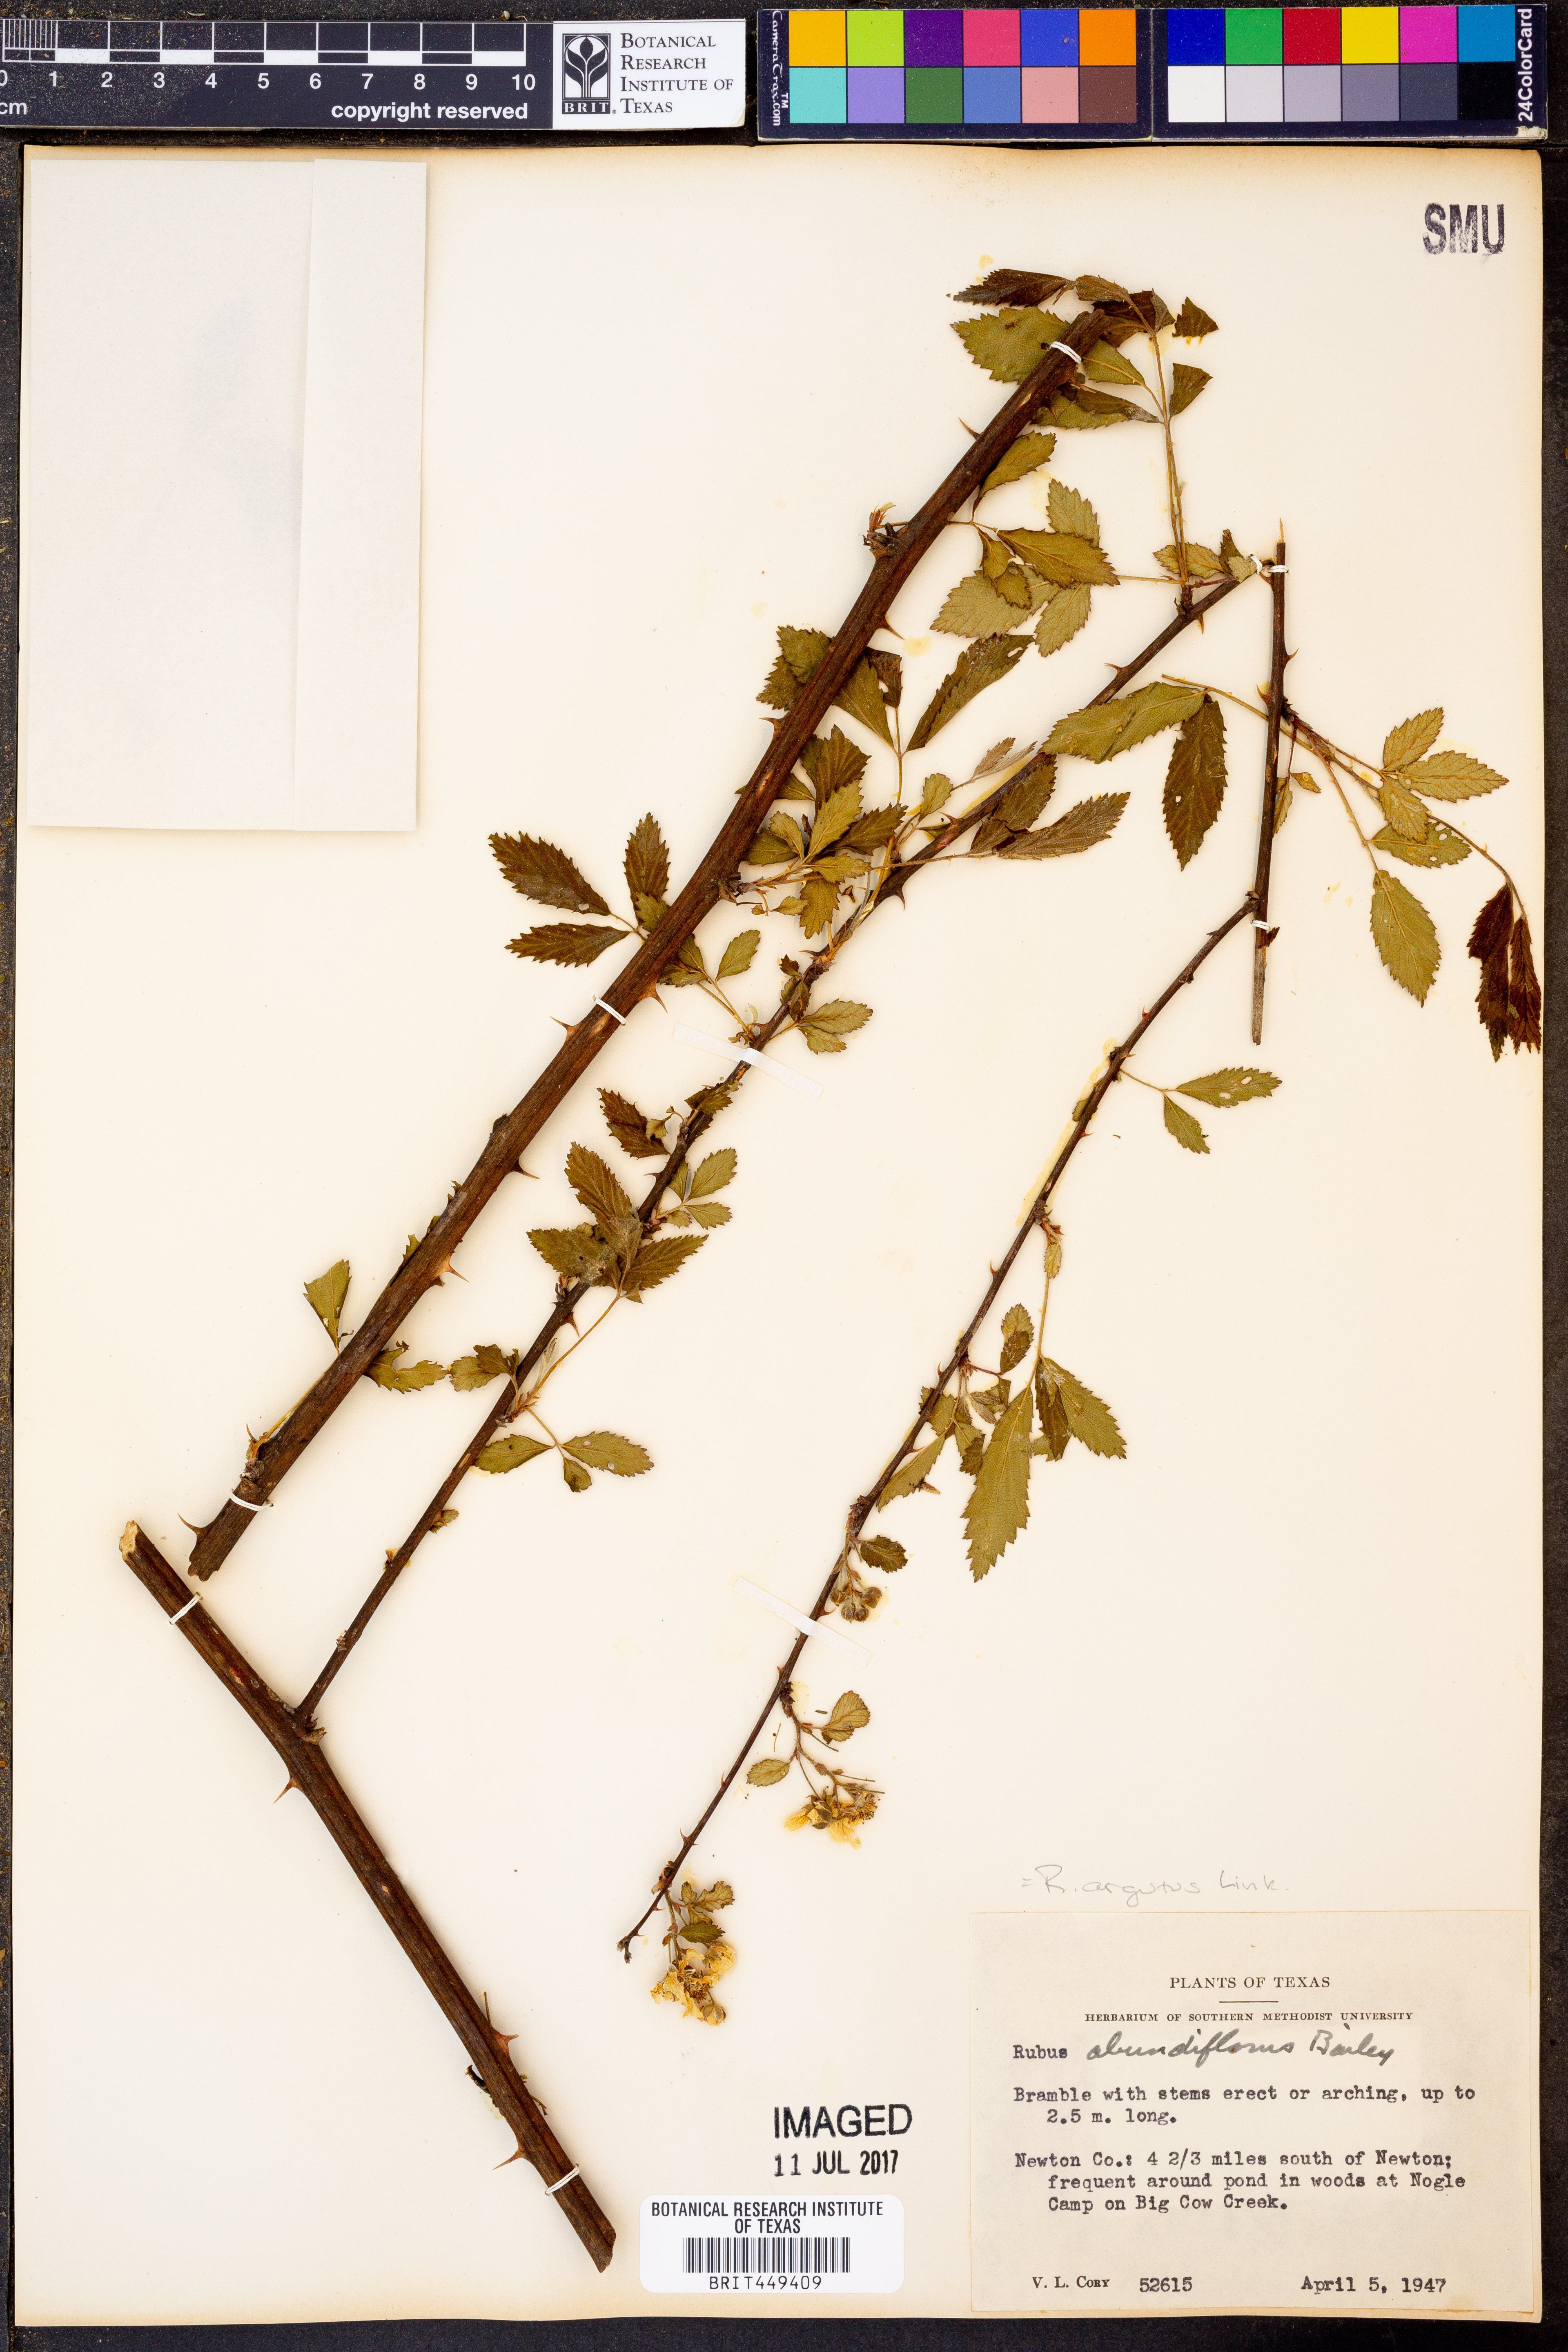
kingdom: Plantae
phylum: Tracheophyta
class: Magnoliopsida
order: Rosales
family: Rosaceae
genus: Rubus
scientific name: Rubus argutus
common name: Sawtooth blackberry
